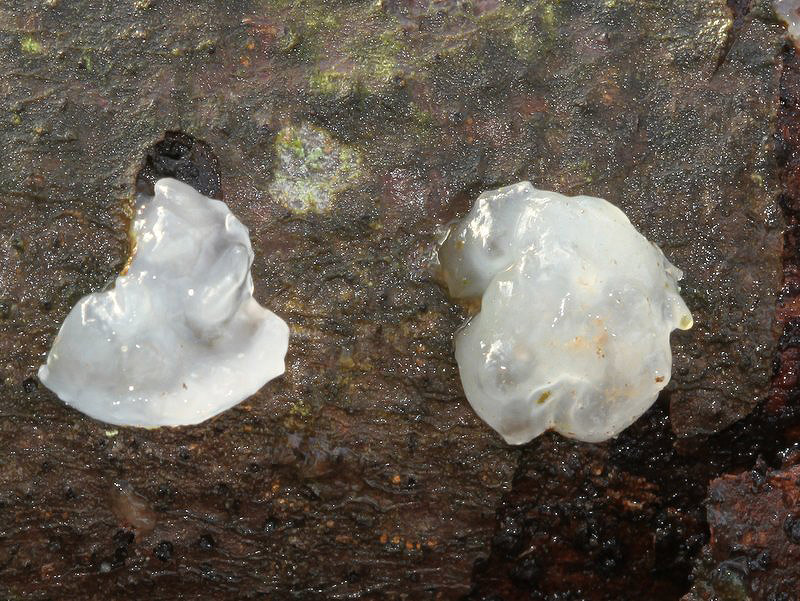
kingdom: Fungi
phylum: Basidiomycota
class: Agaricomycetes
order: Auriculariales
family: Hyaloriaceae
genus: Myxarium
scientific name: Myxarium nucleatum
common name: klar bævretop
